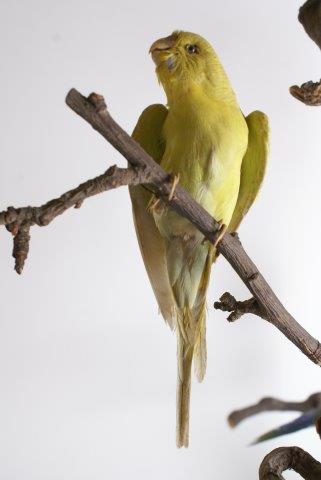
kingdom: Animalia
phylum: Chordata
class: Aves
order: Psittaciformes
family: Psittacidae
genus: Melopsittacus
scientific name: Melopsittacus undulatus
